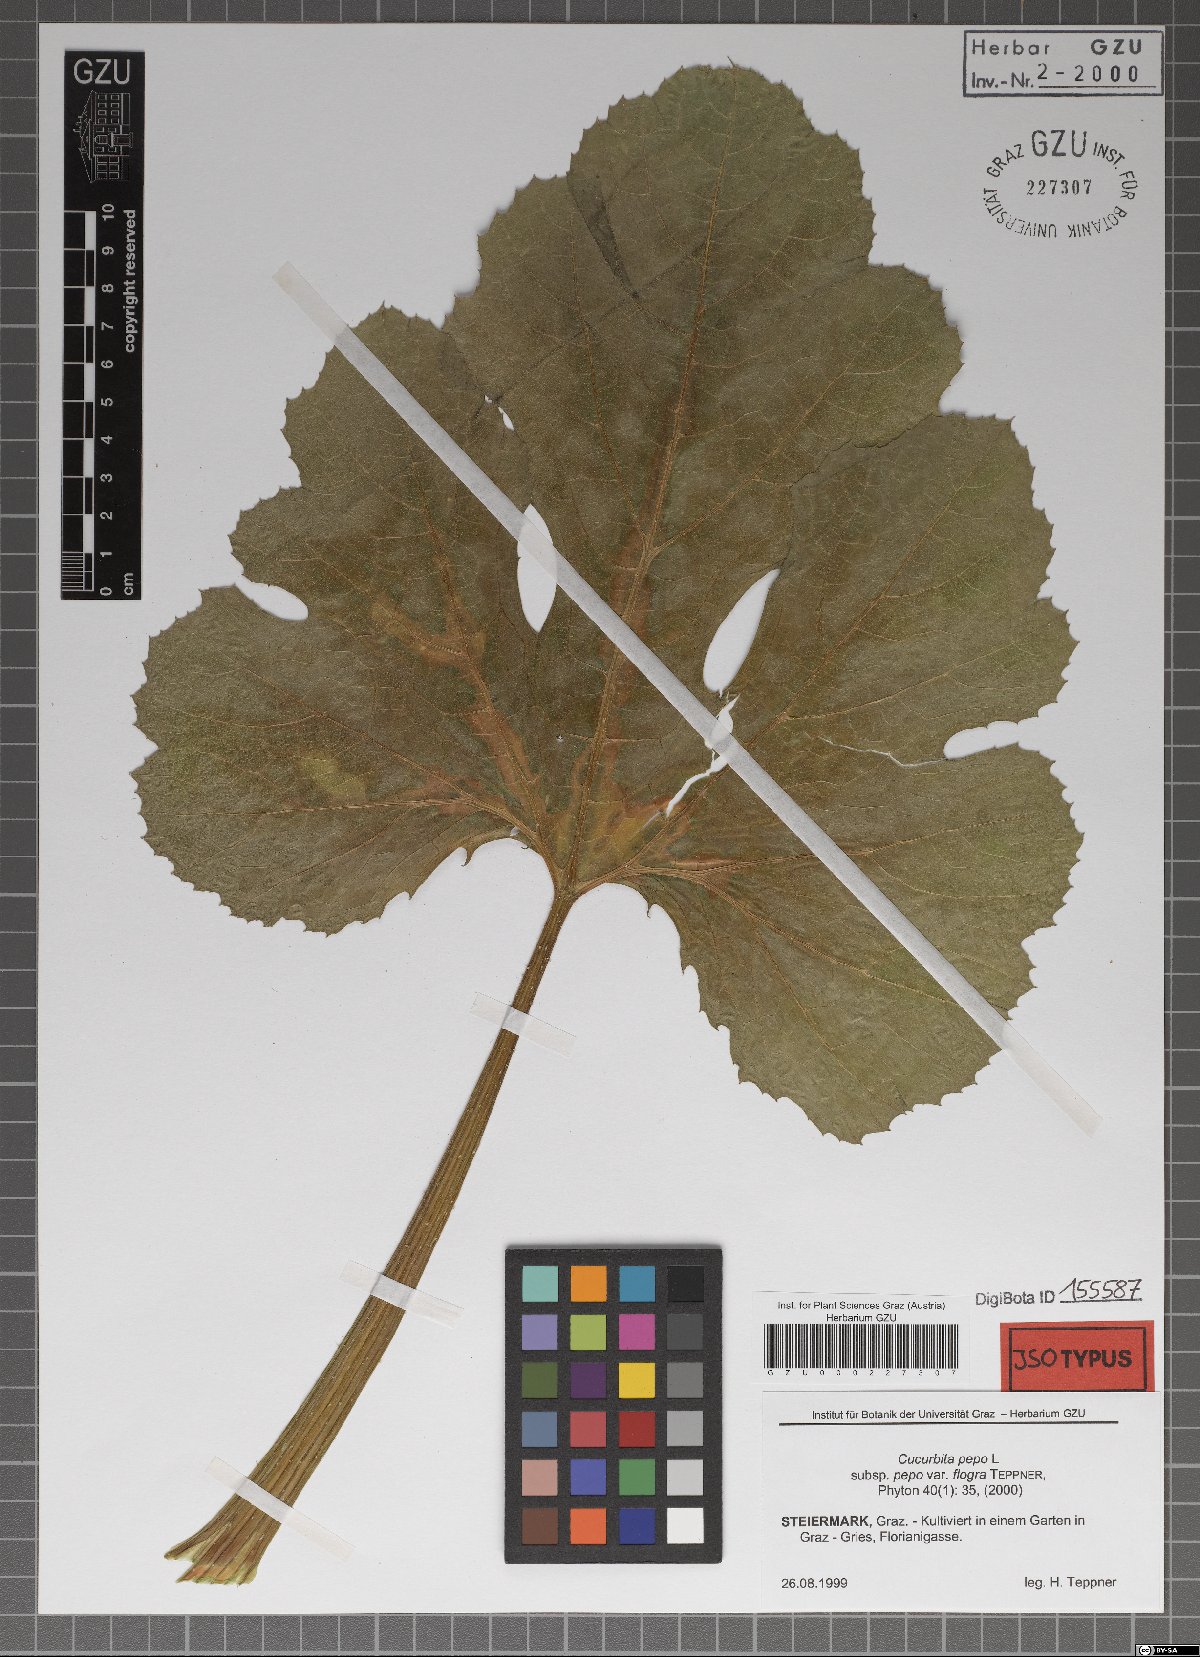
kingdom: Plantae
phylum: Tracheophyta
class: Magnoliopsida
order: Cucurbitales
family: Cucurbitaceae
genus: Cucurbita
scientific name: Cucurbita pepo
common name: Marrow
